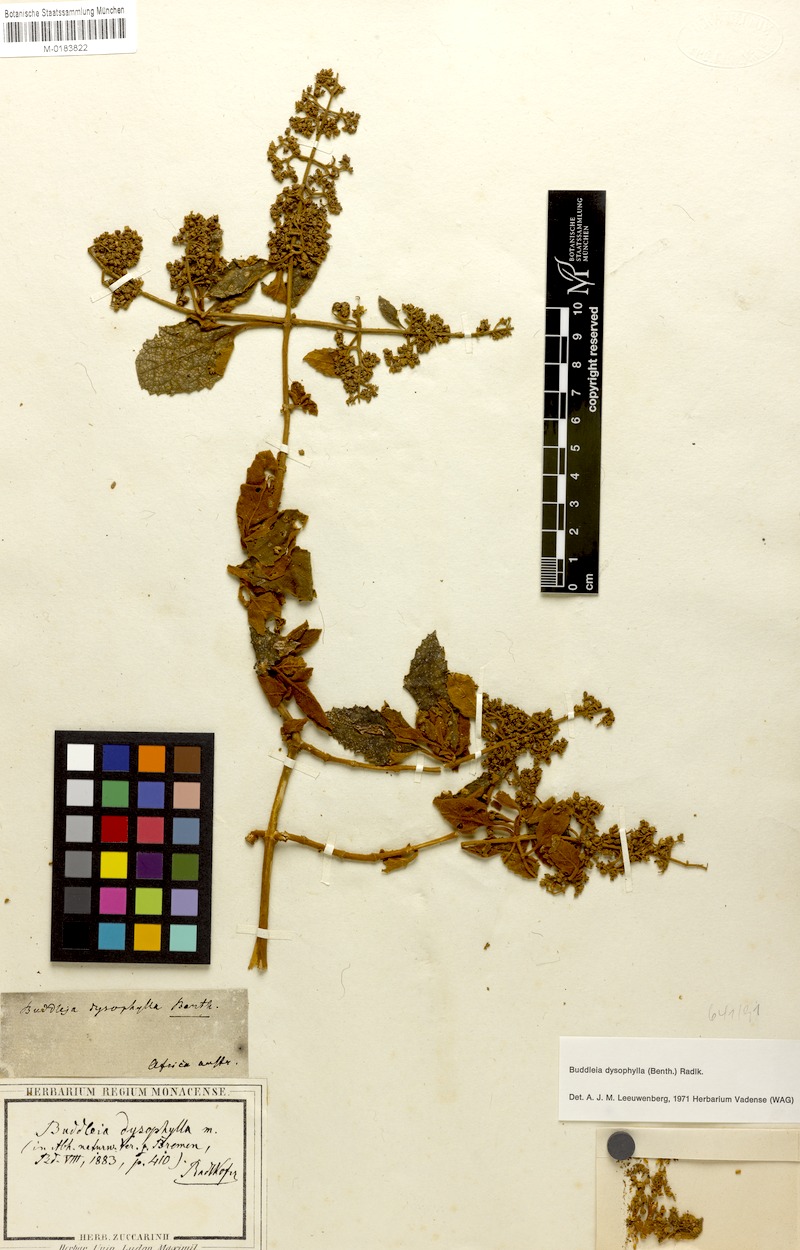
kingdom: Plantae
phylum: Tracheophyta
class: Magnoliopsida
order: Lamiales
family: Scrophulariaceae
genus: Buddleja
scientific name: Buddleja dysophylla
